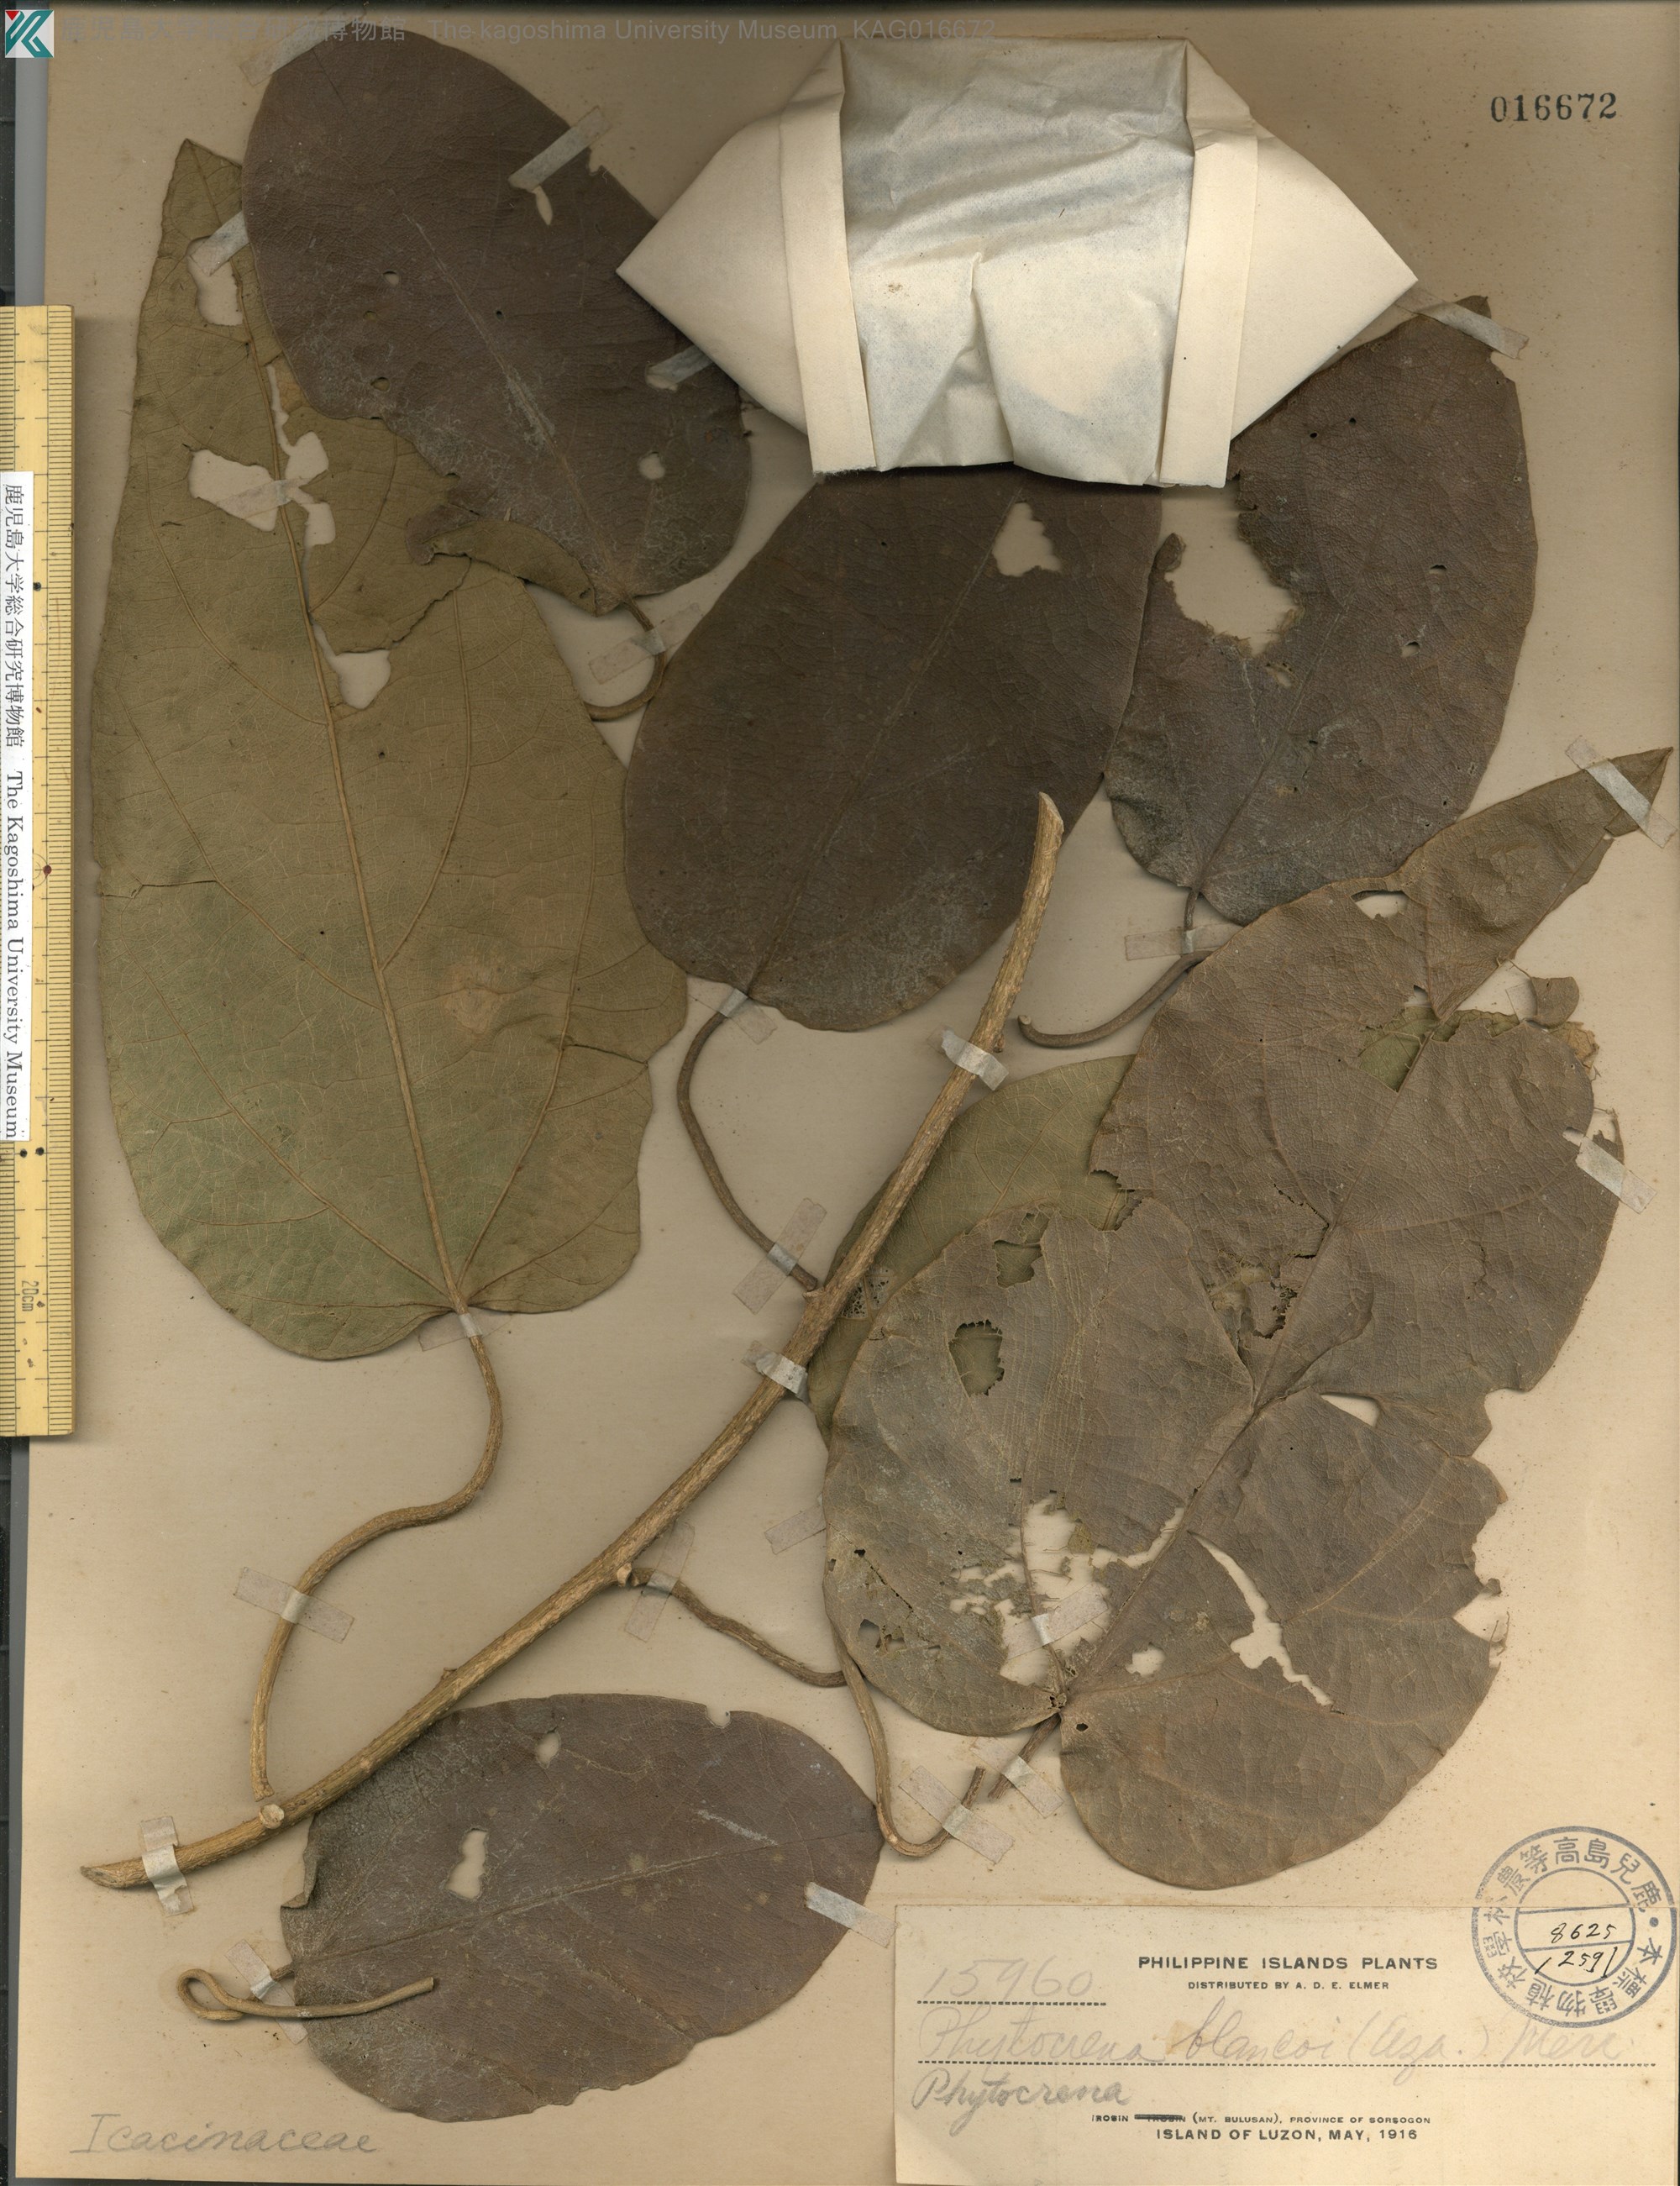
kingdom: Plantae
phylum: Tracheophyta
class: Magnoliopsida
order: Icacinales
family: Icacinaceae
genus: Phytocrene
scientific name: Phytocrene macrophylla
